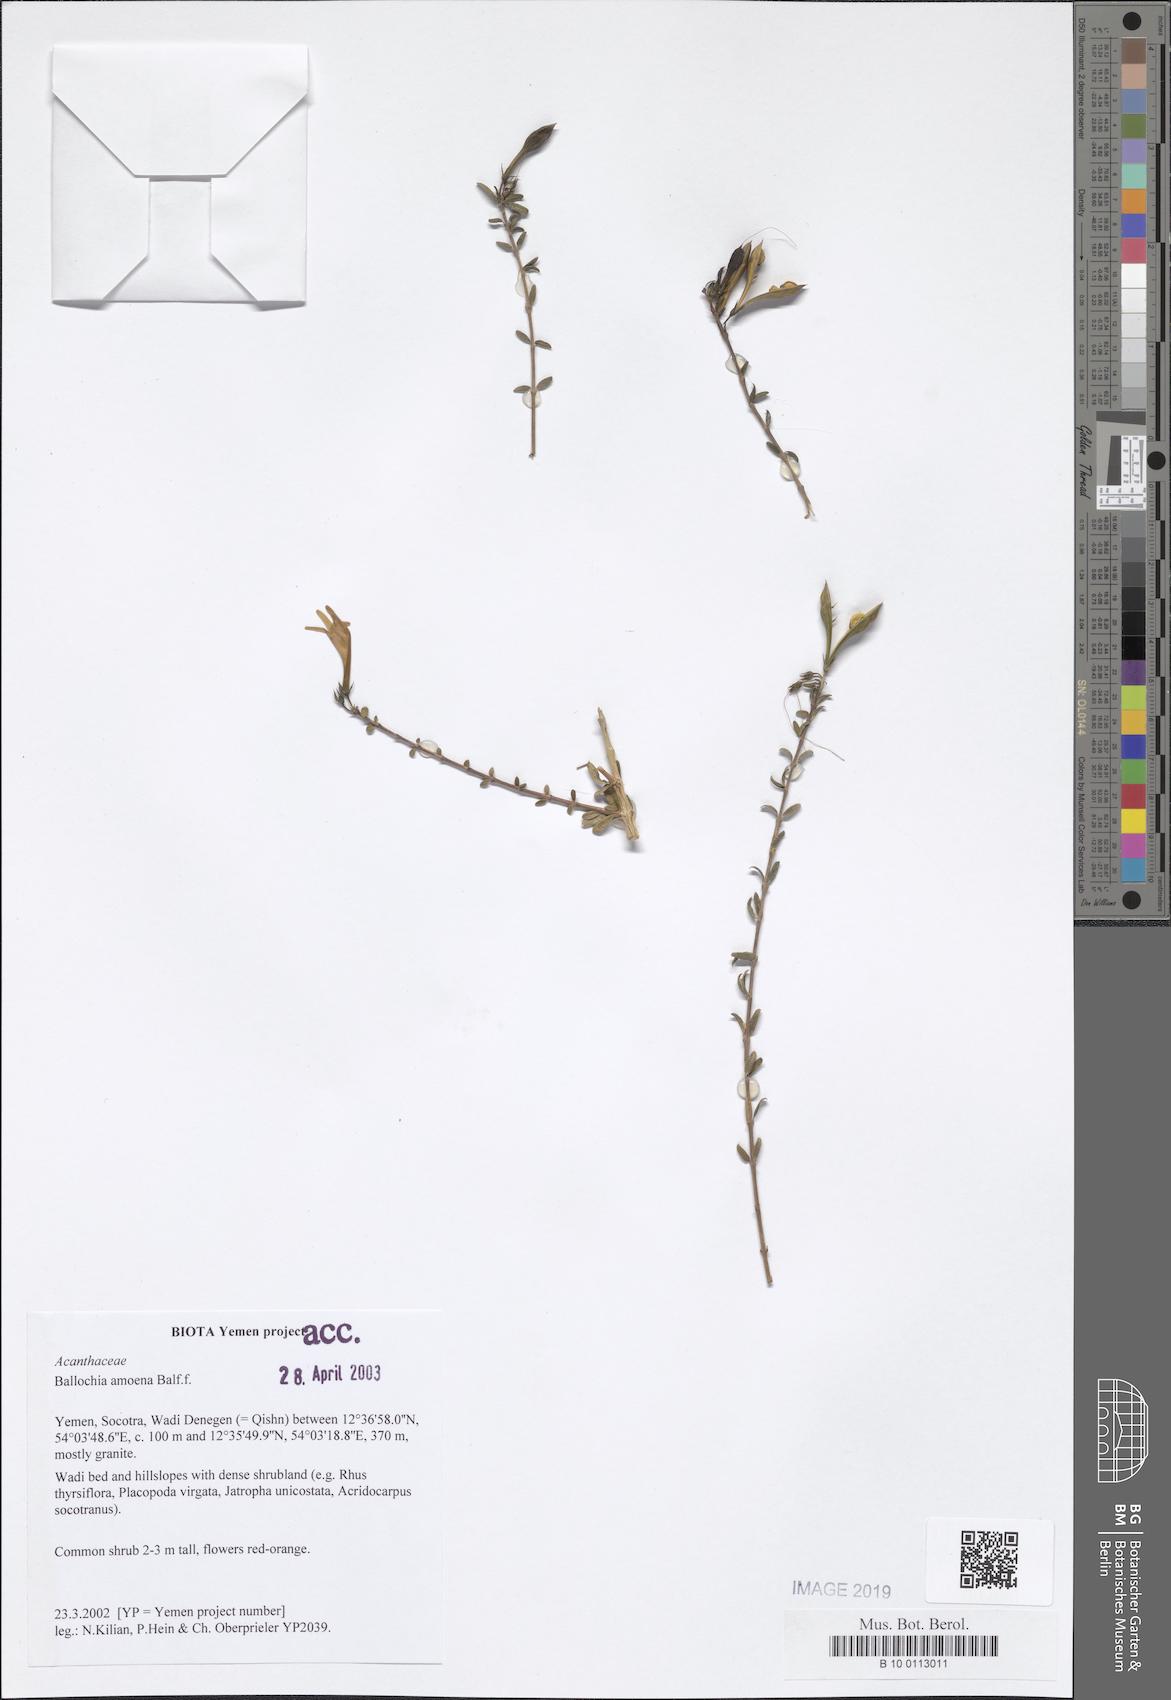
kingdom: Plantae
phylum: Tracheophyta
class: Magnoliopsida
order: Lamiales
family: Acanthaceae
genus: Ballochia
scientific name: Ballochia amoena
